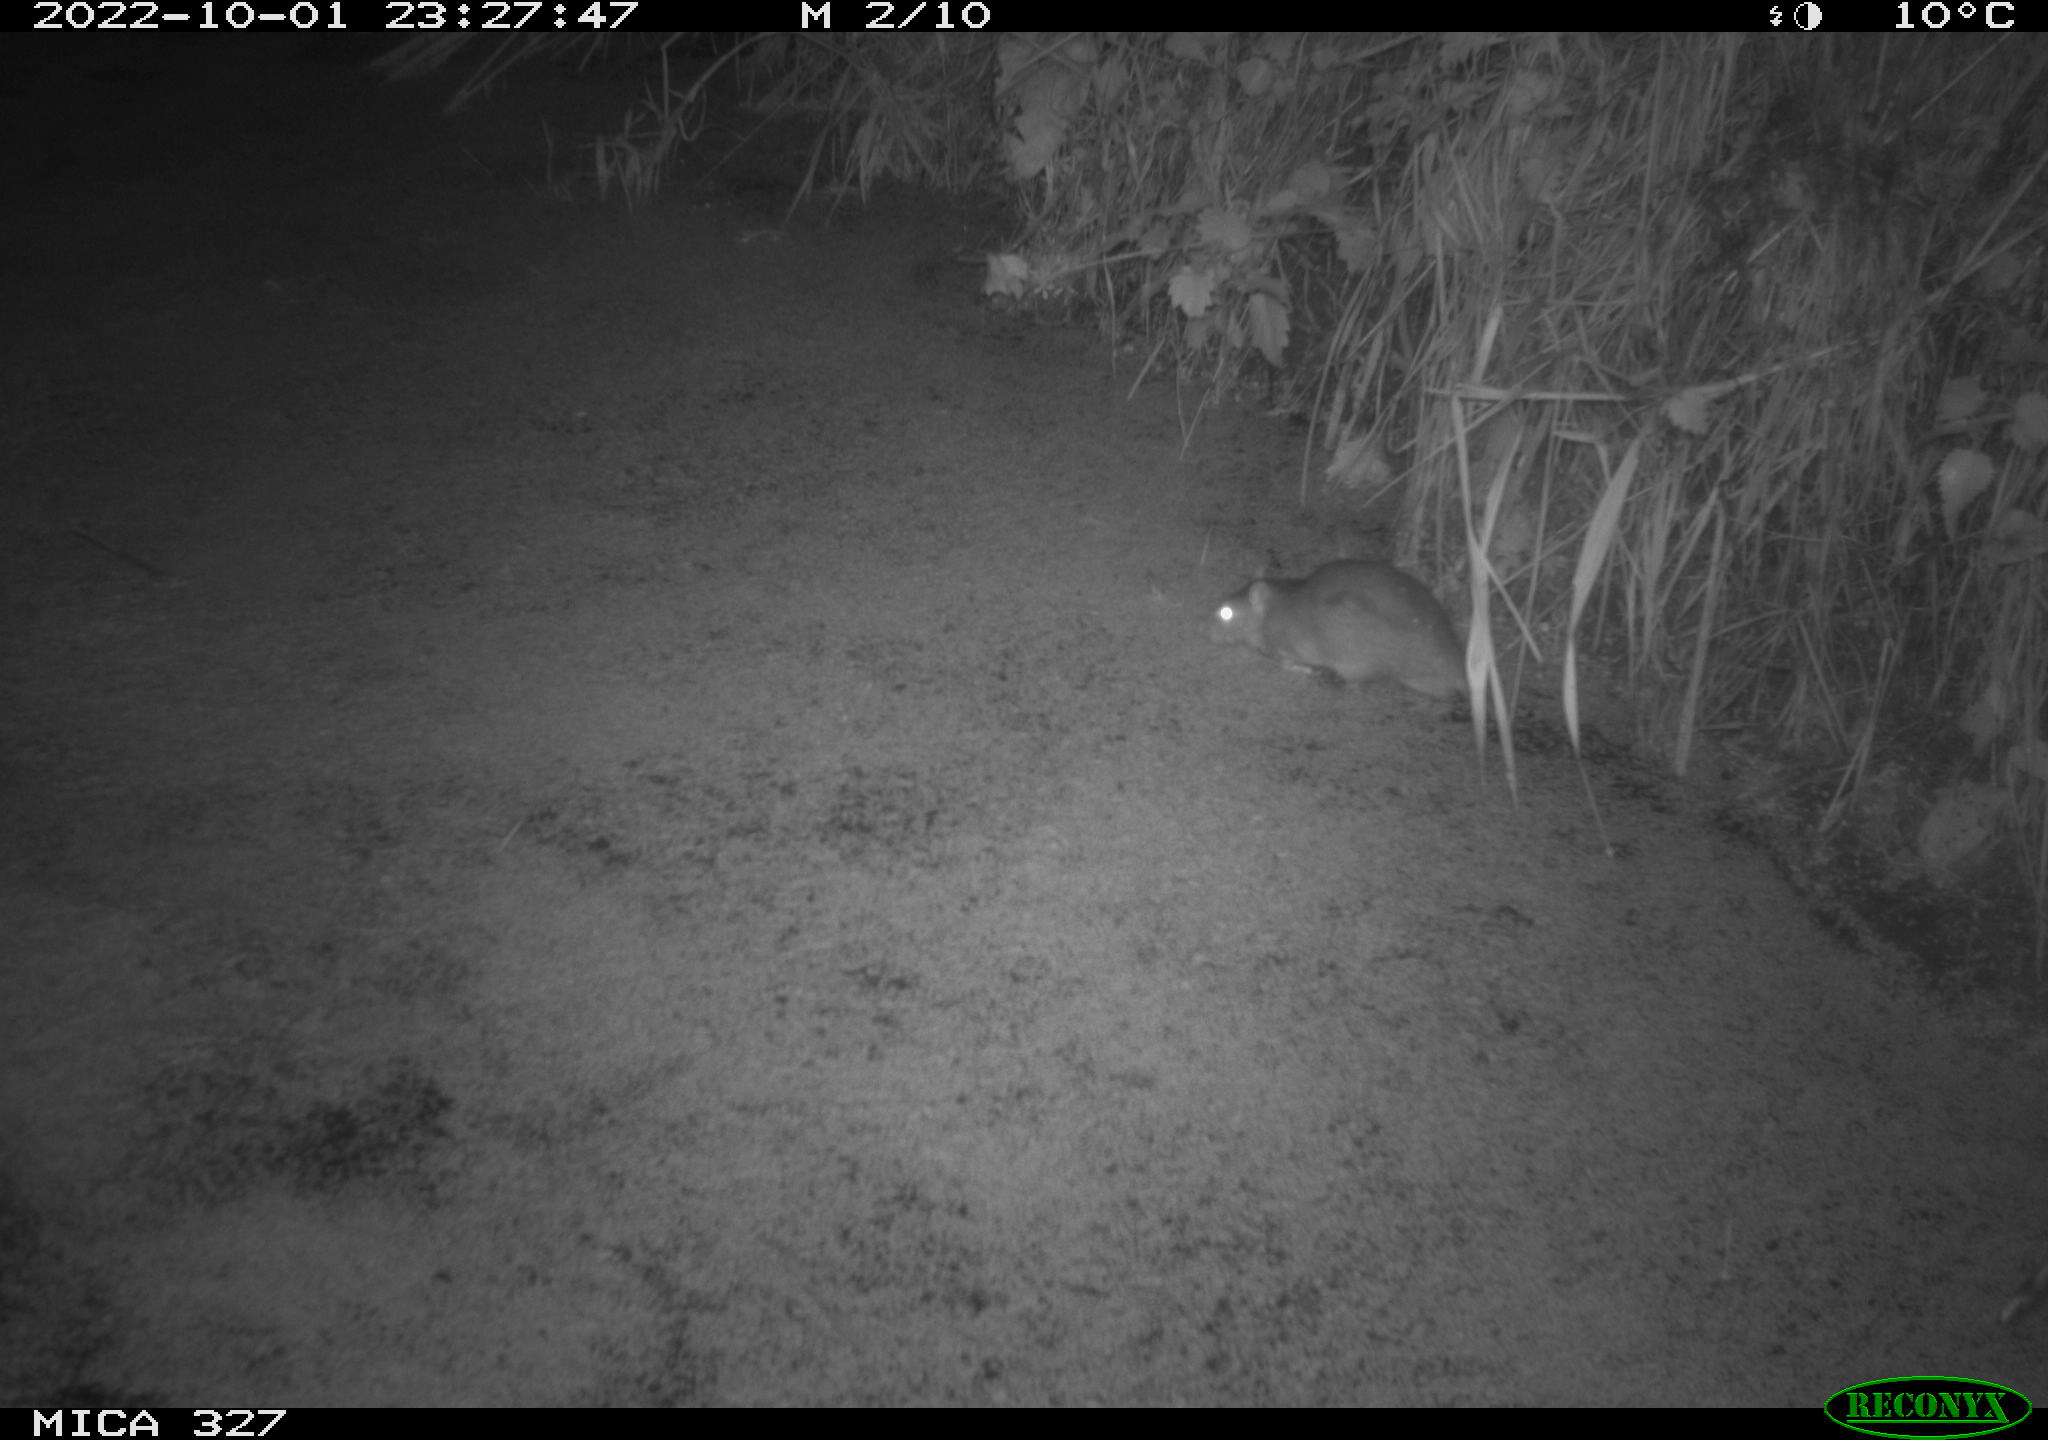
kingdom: Animalia
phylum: Chordata
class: Mammalia
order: Rodentia
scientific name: Rodentia
